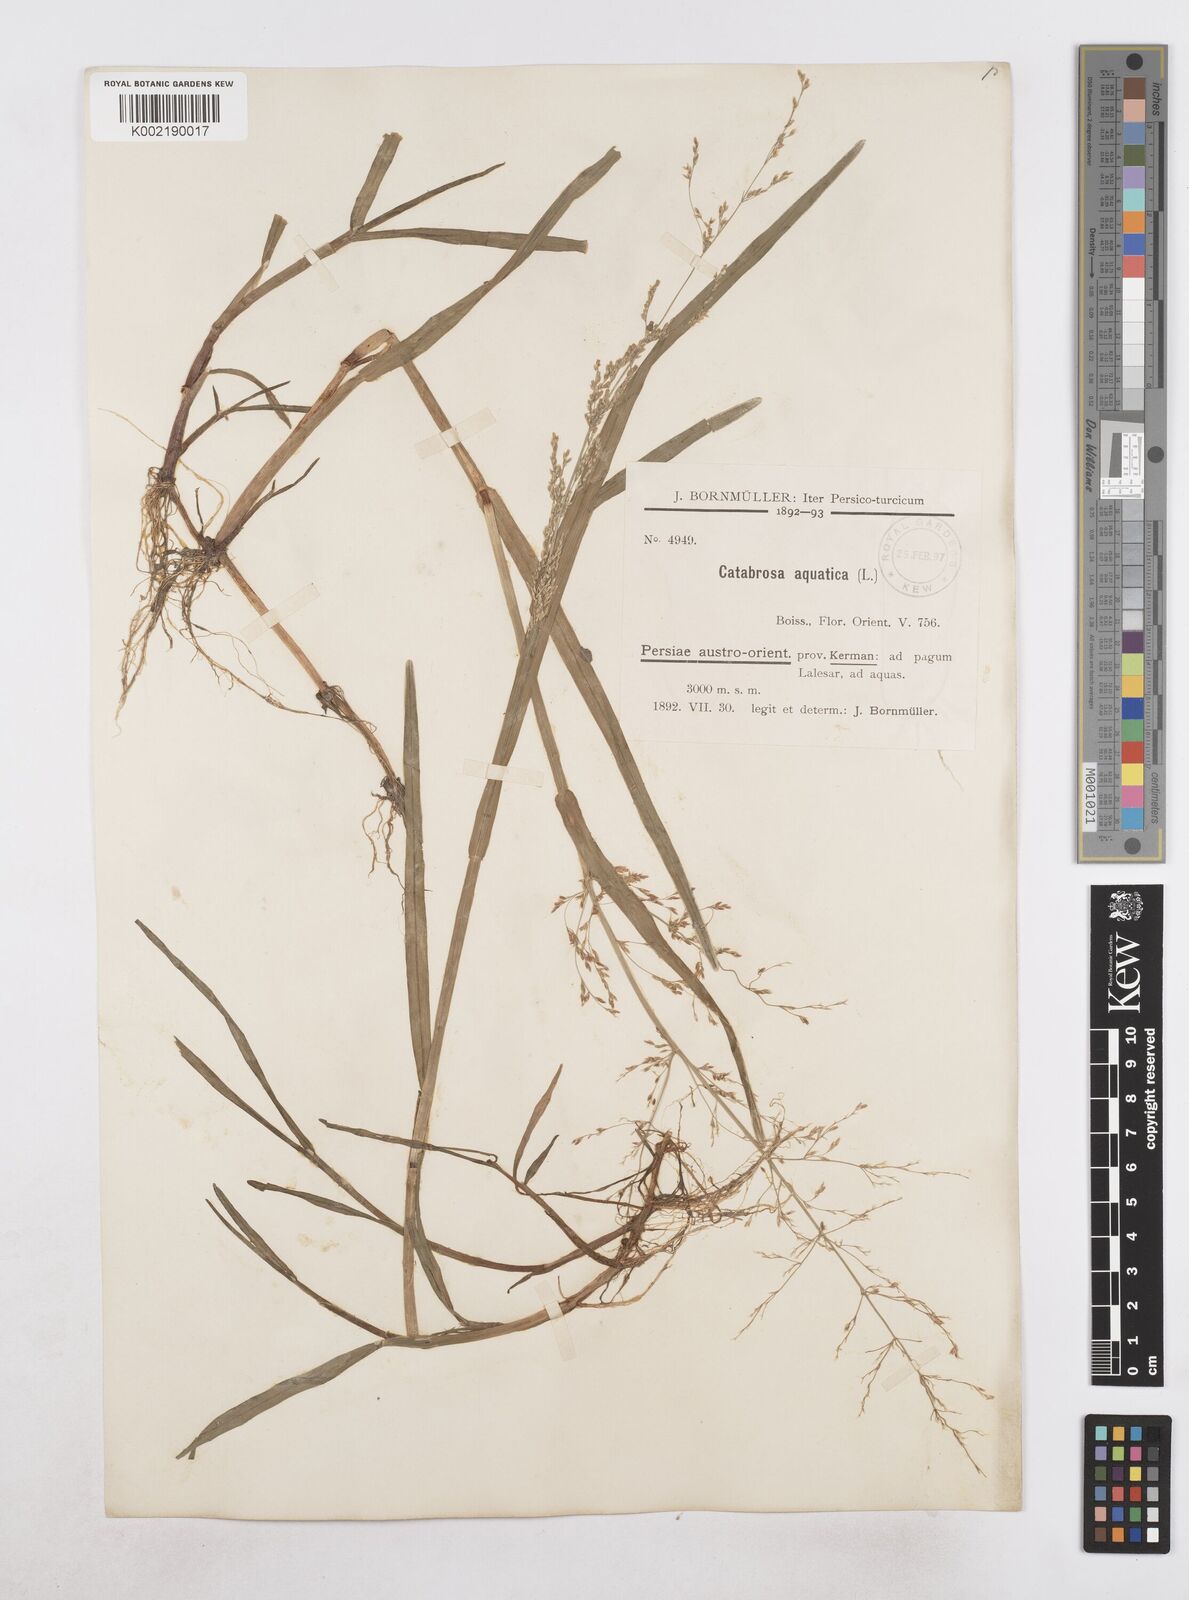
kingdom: Plantae
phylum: Tracheophyta
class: Liliopsida
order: Poales
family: Poaceae
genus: Catabrosa
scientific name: Catabrosa aquatica
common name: Whorl-grass
